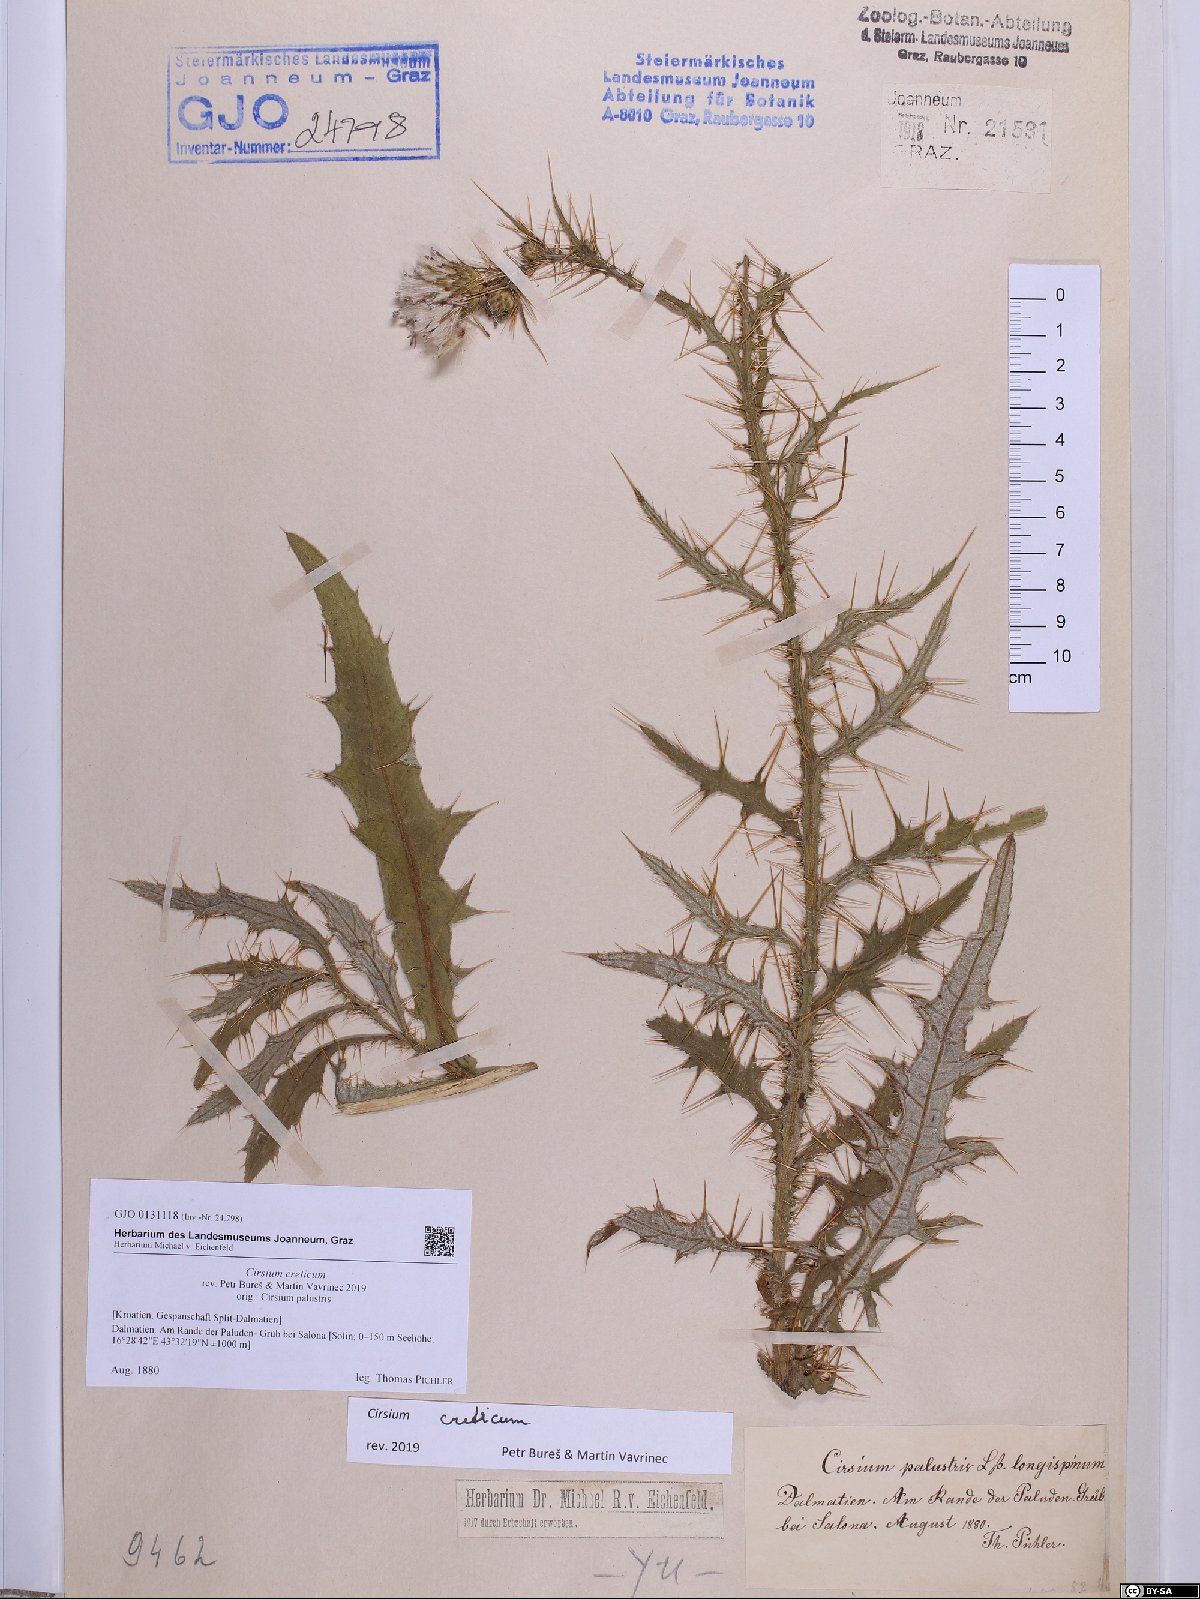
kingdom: Plantae
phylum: Tracheophyta
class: Magnoliopsida
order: Asterales
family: Asteraceae
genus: Cirsium
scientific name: Cirsium creticum
